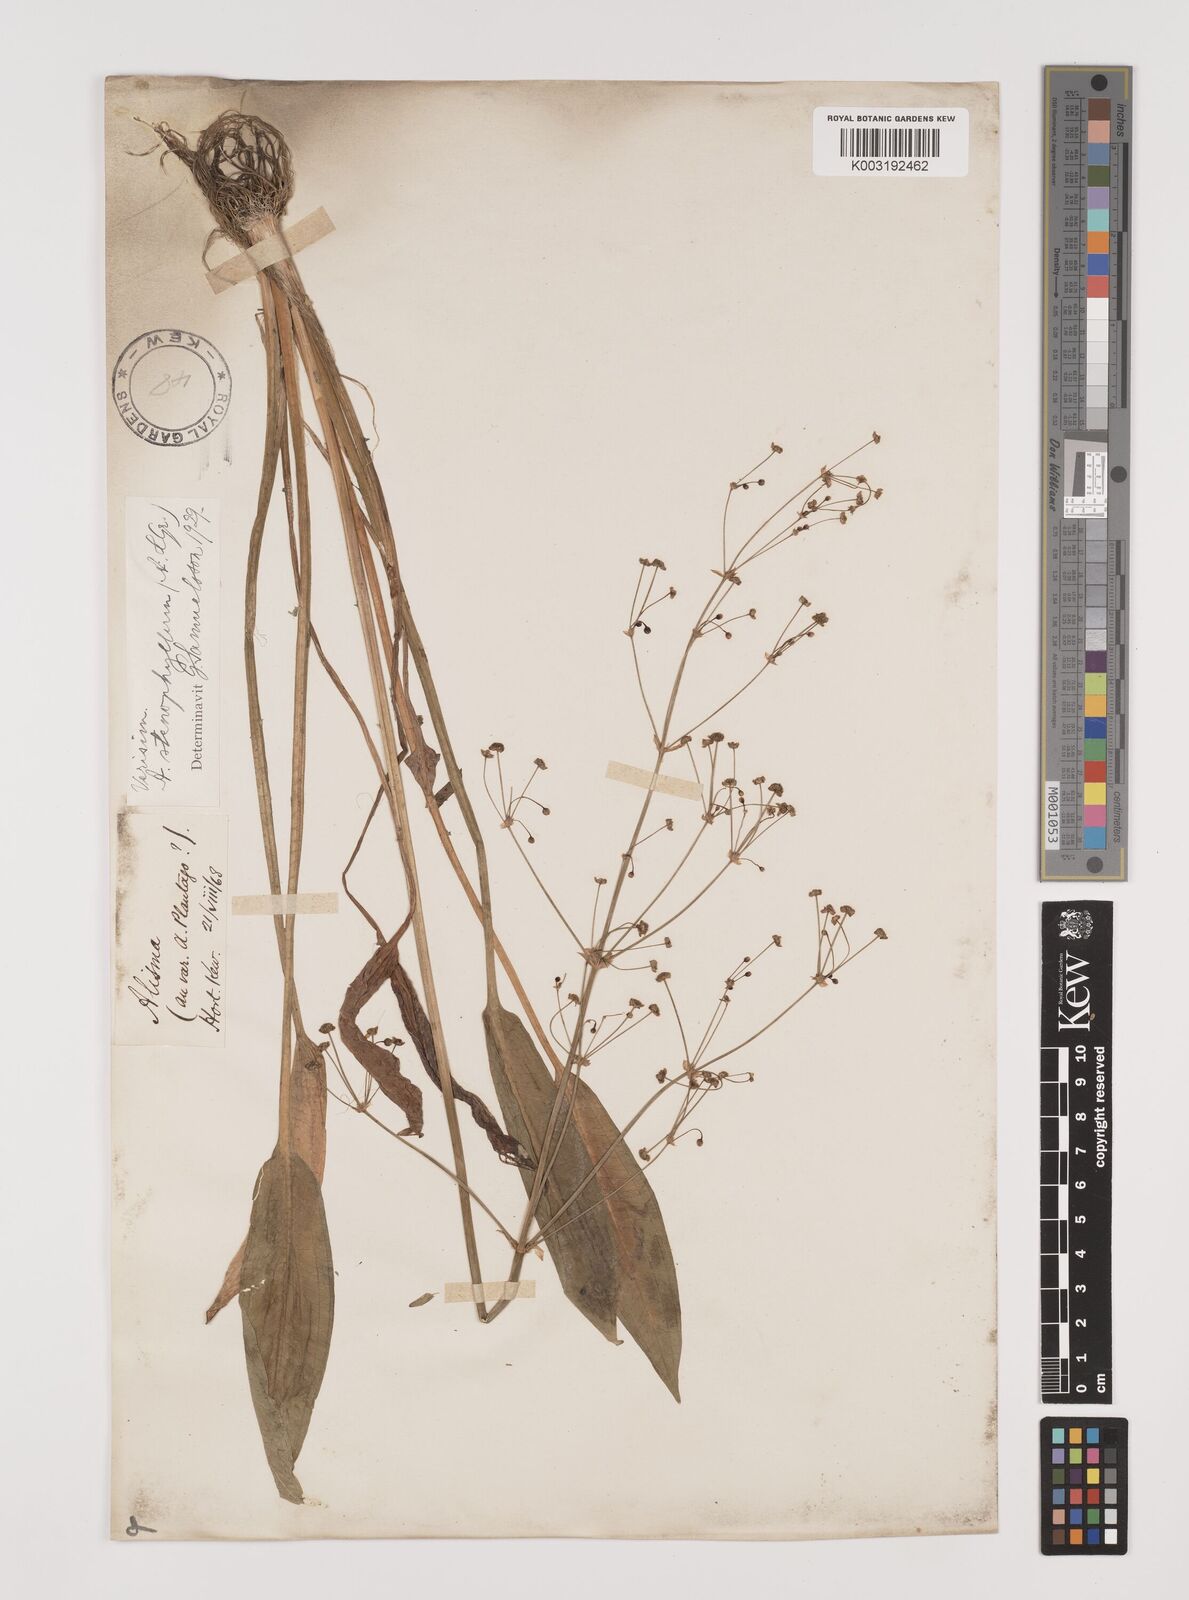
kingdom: Plantae
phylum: Tracheophyta
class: Liliopsida
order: Alismatales
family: Alismataceae
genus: Alisma
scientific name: Alisma lanceolatum
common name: Narrow-leaved water-plantain
